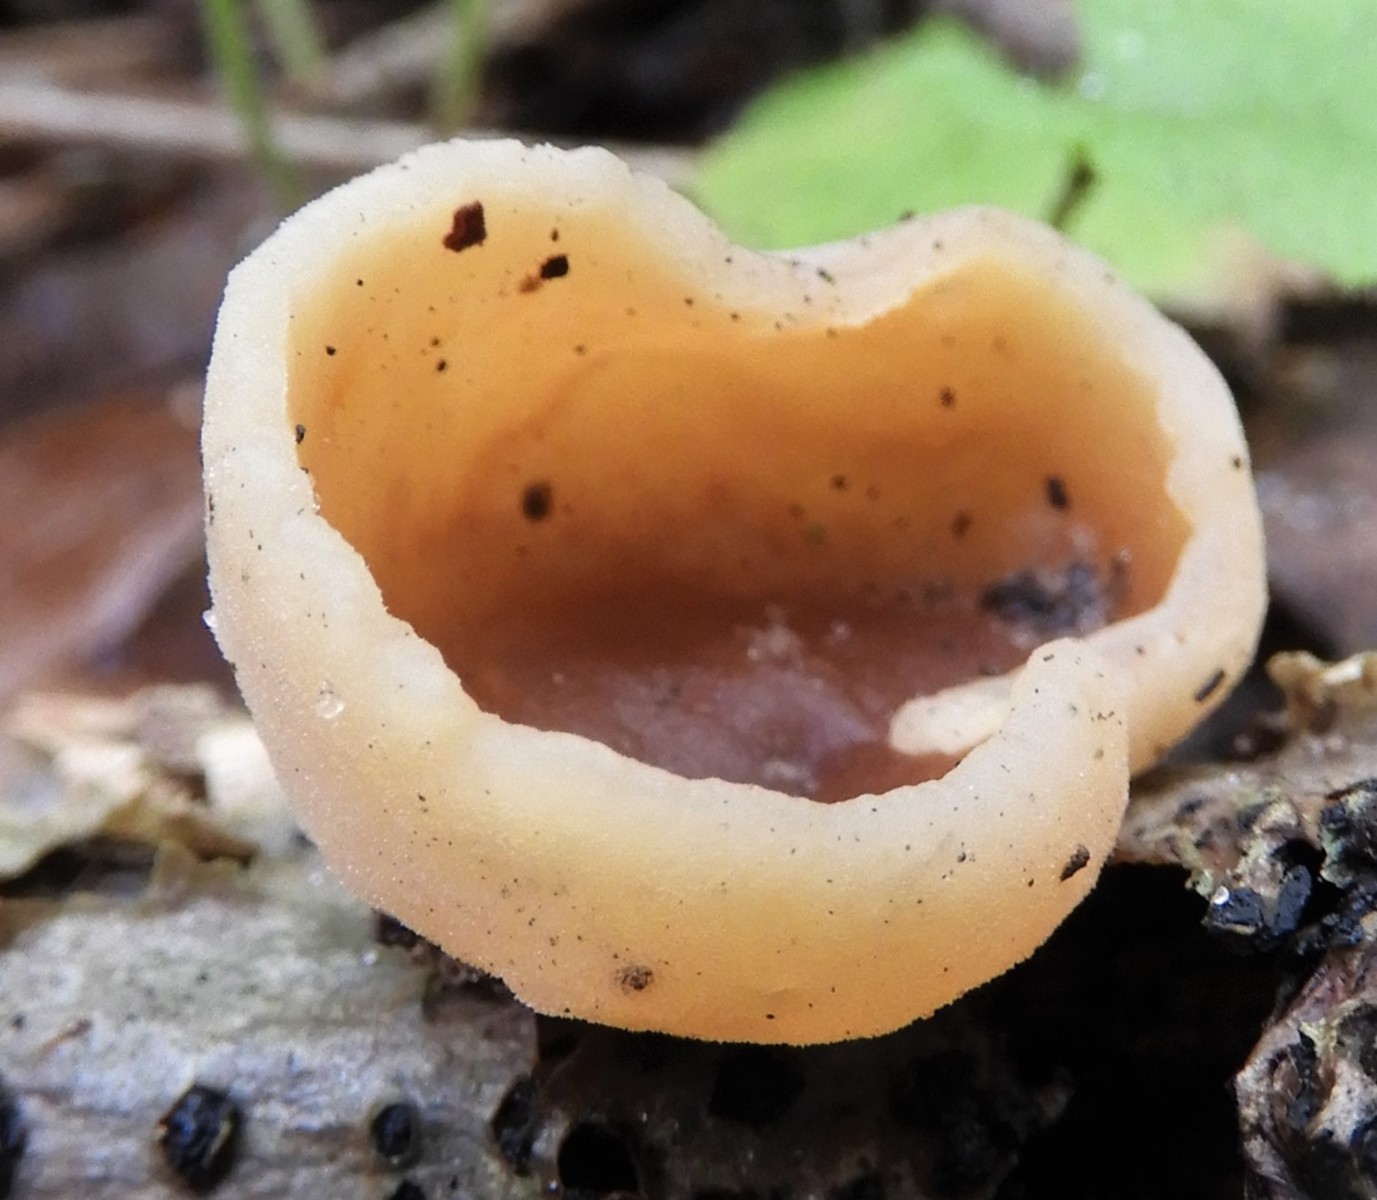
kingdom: Fungi
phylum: Ascomycota
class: Pezizomycetes
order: Pezizales
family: Pezizaceae
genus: Peziza
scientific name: Peziza
